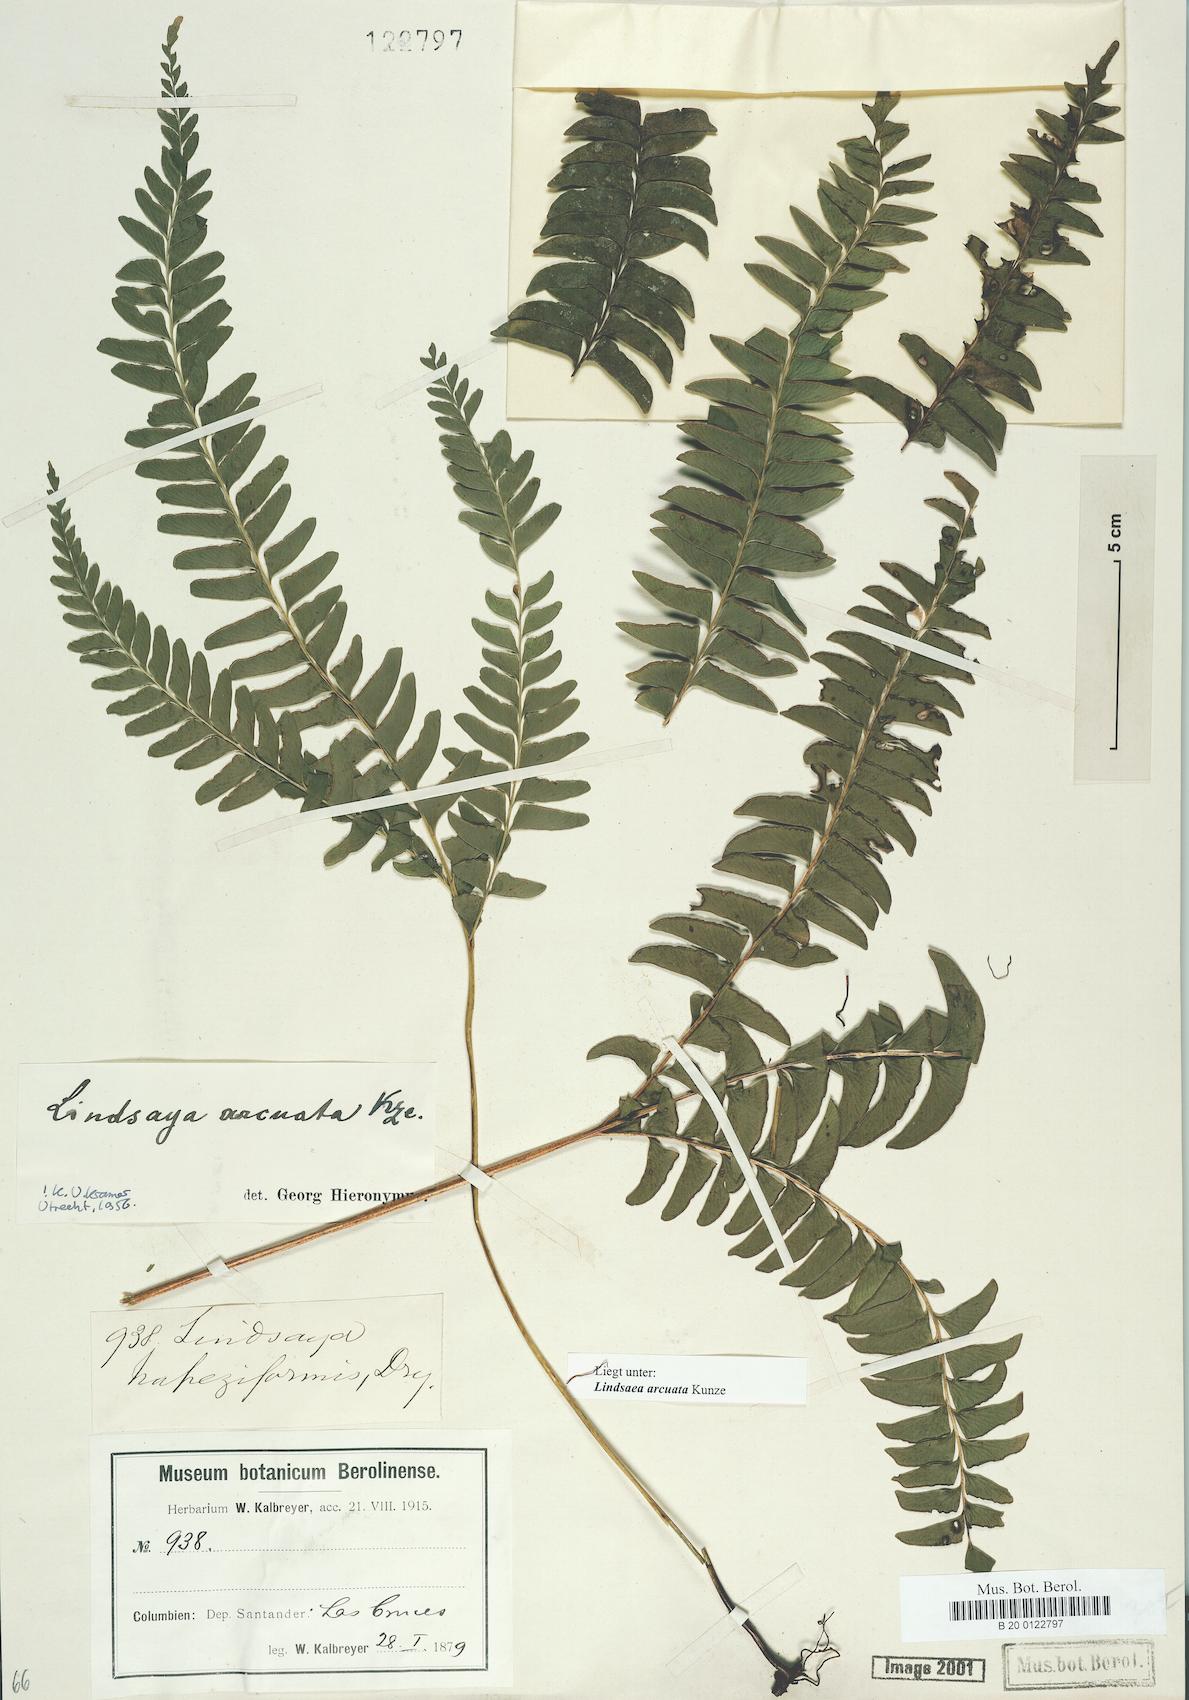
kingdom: Plantae
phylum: Tracheophyta
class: Polypodiopsida
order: Polypodiales
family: Lindsaeaceae
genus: Lindsaea
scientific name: Lindsaea arcuata
